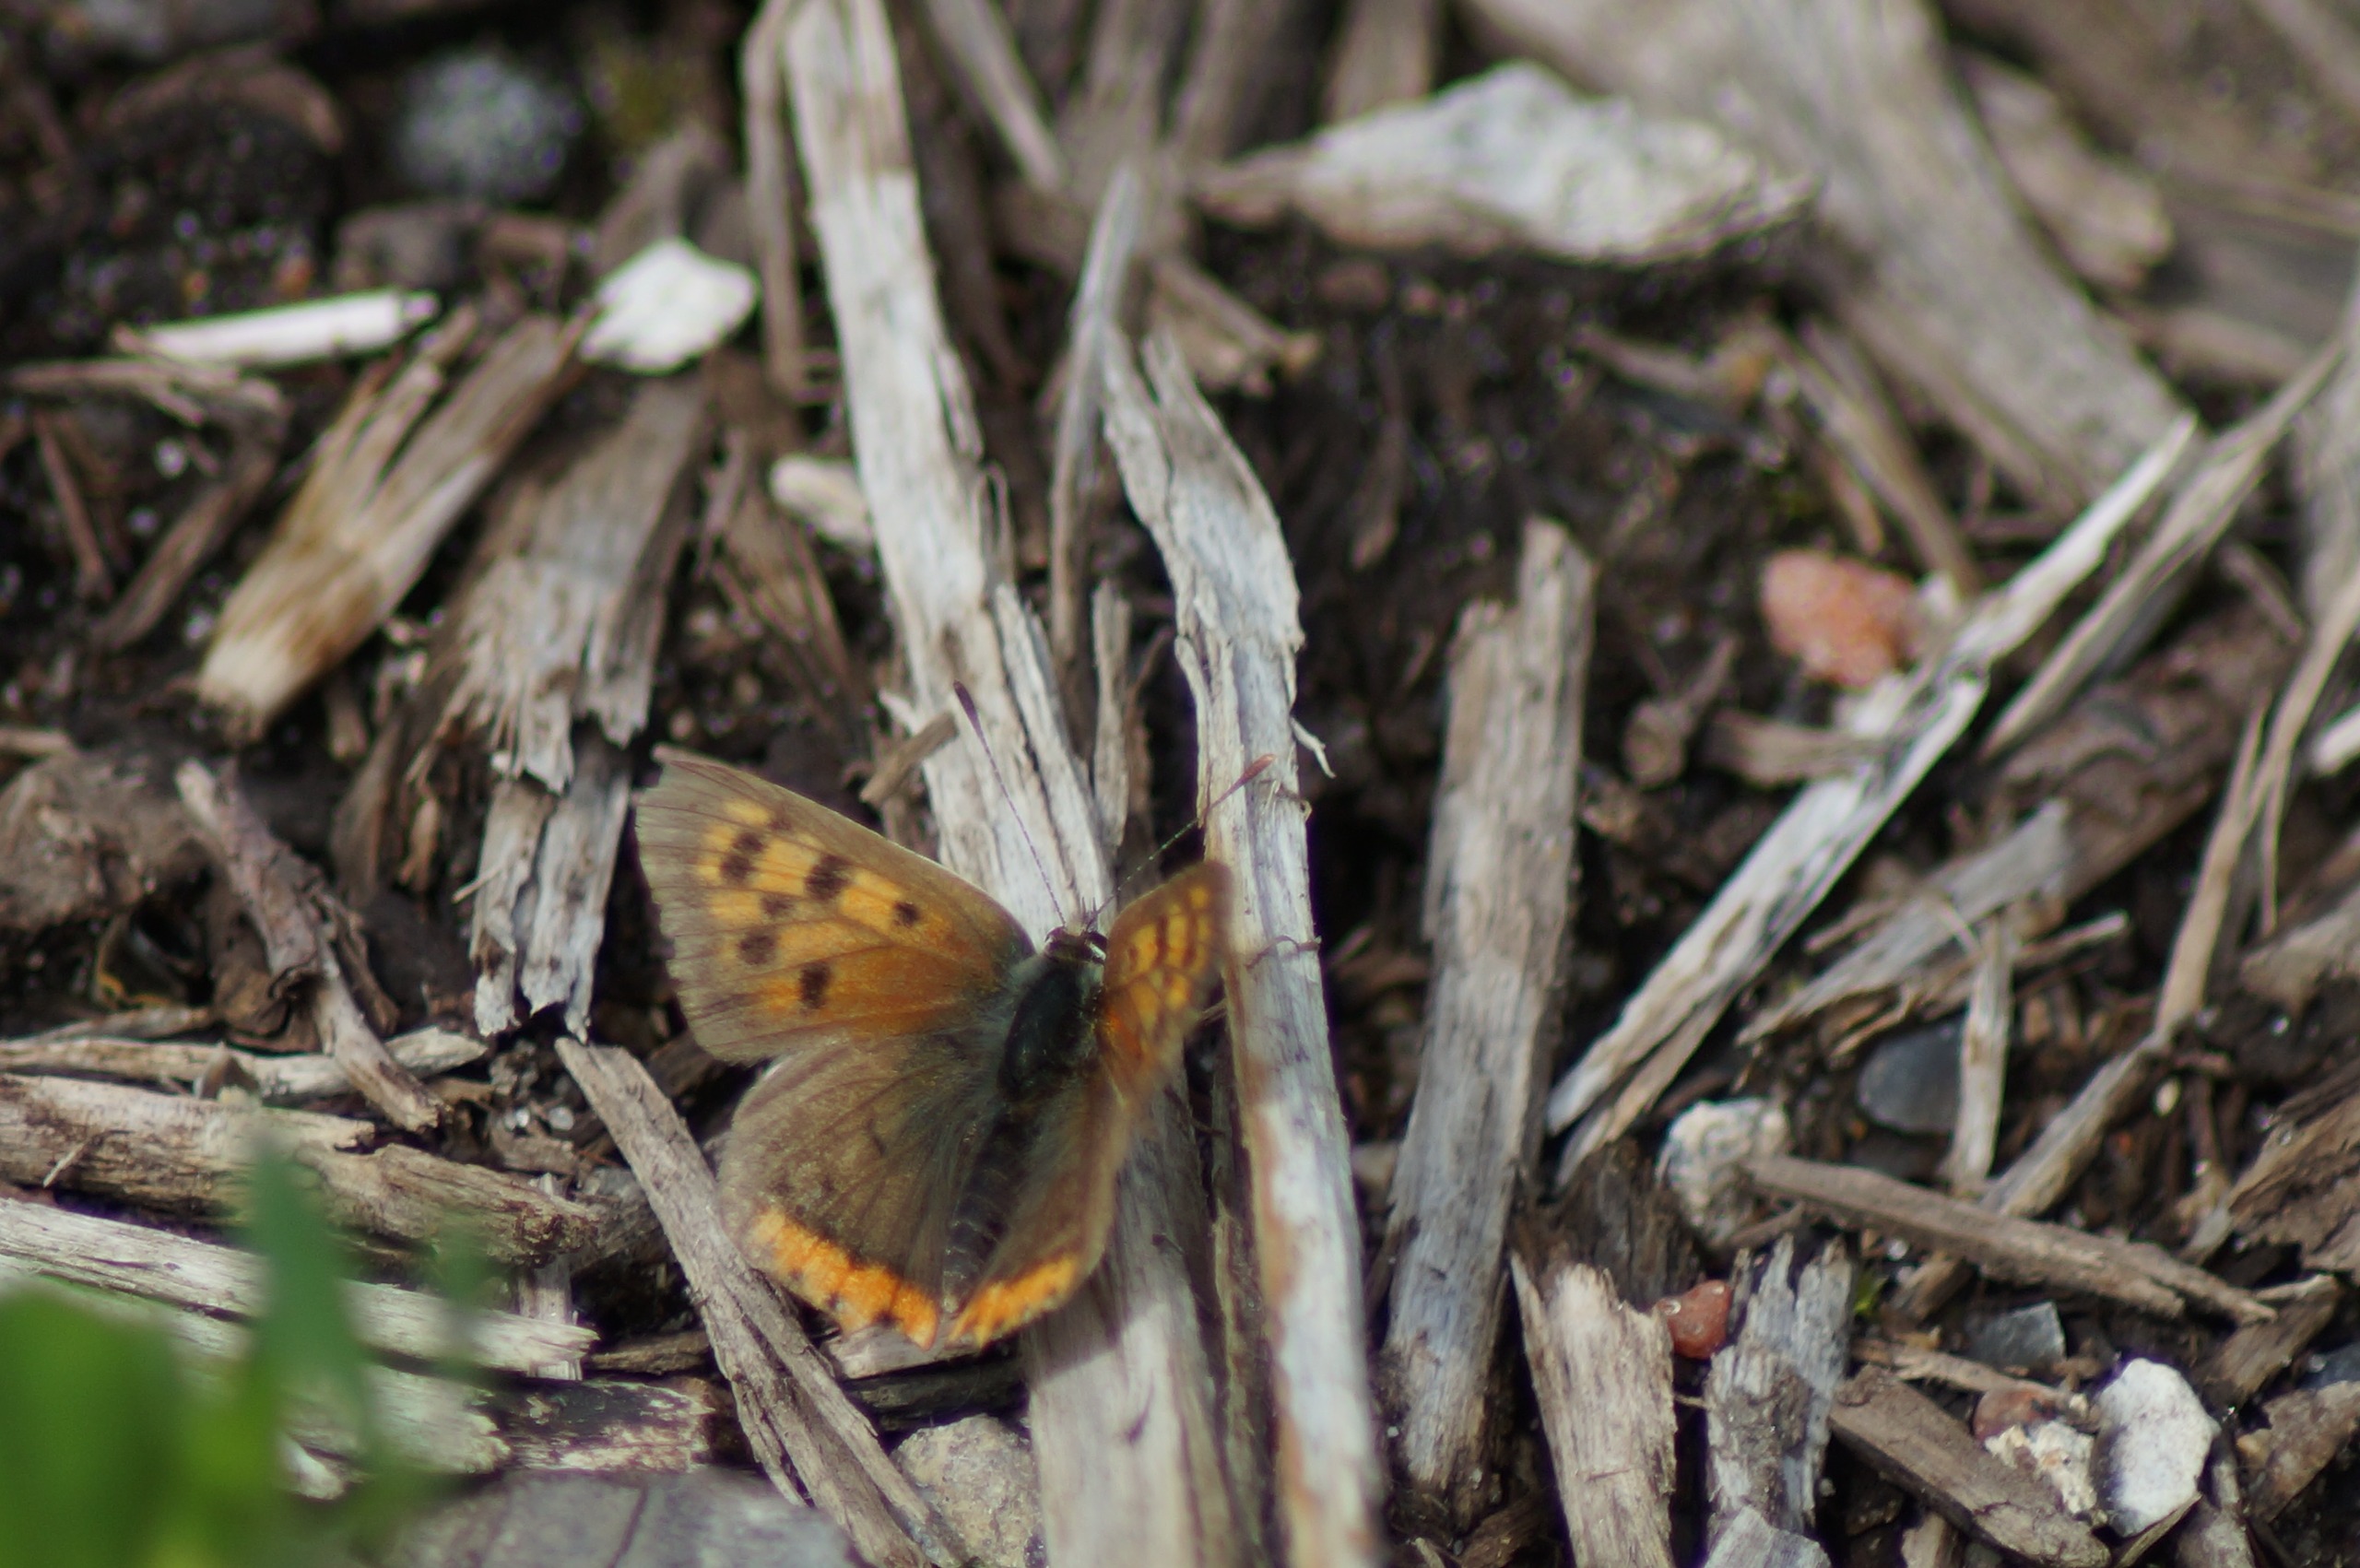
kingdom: Animalia
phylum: Arthropoda
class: Insecta
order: Lepidoptera
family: Lycaenidae
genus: Lycaena
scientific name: Lycaena phlaeas
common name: Lille ildfugl
